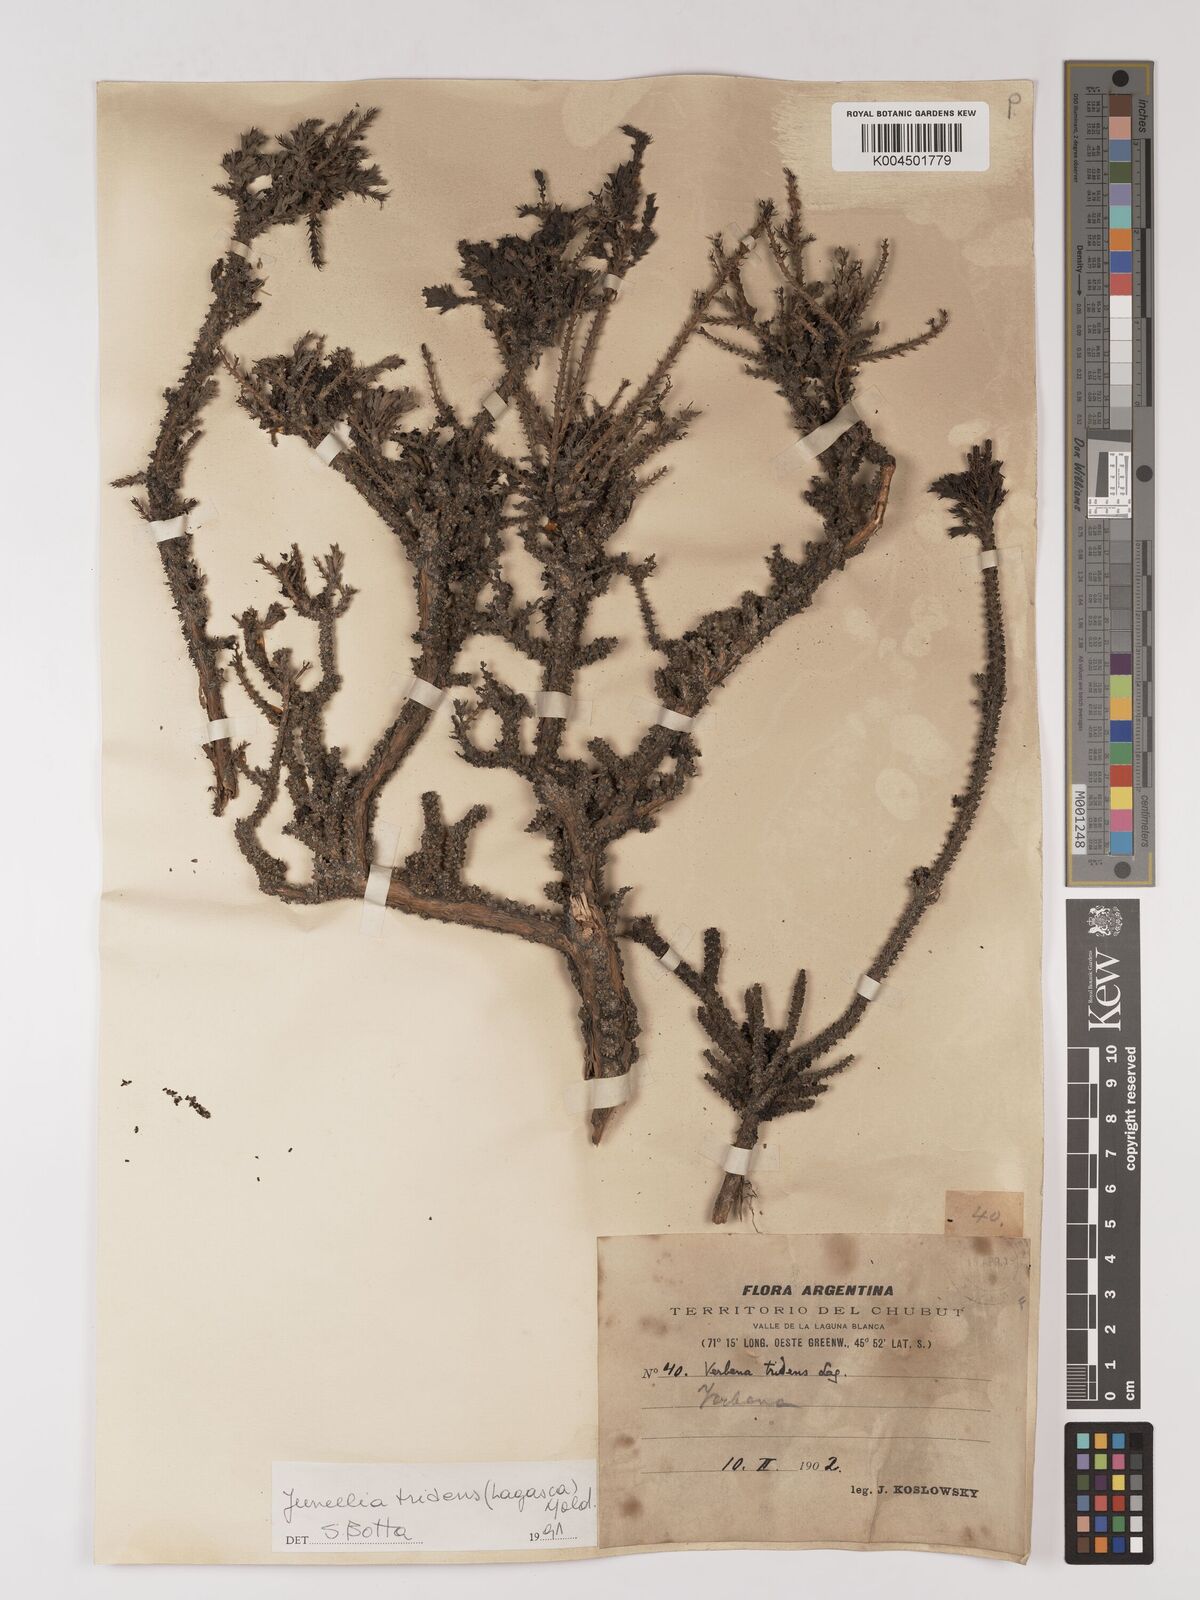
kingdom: Plantae
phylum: Tracheophyta
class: Magnoliopsida
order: Lamiales
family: Verbenaceae
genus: Mulguraea
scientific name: Mulguraea tridens
